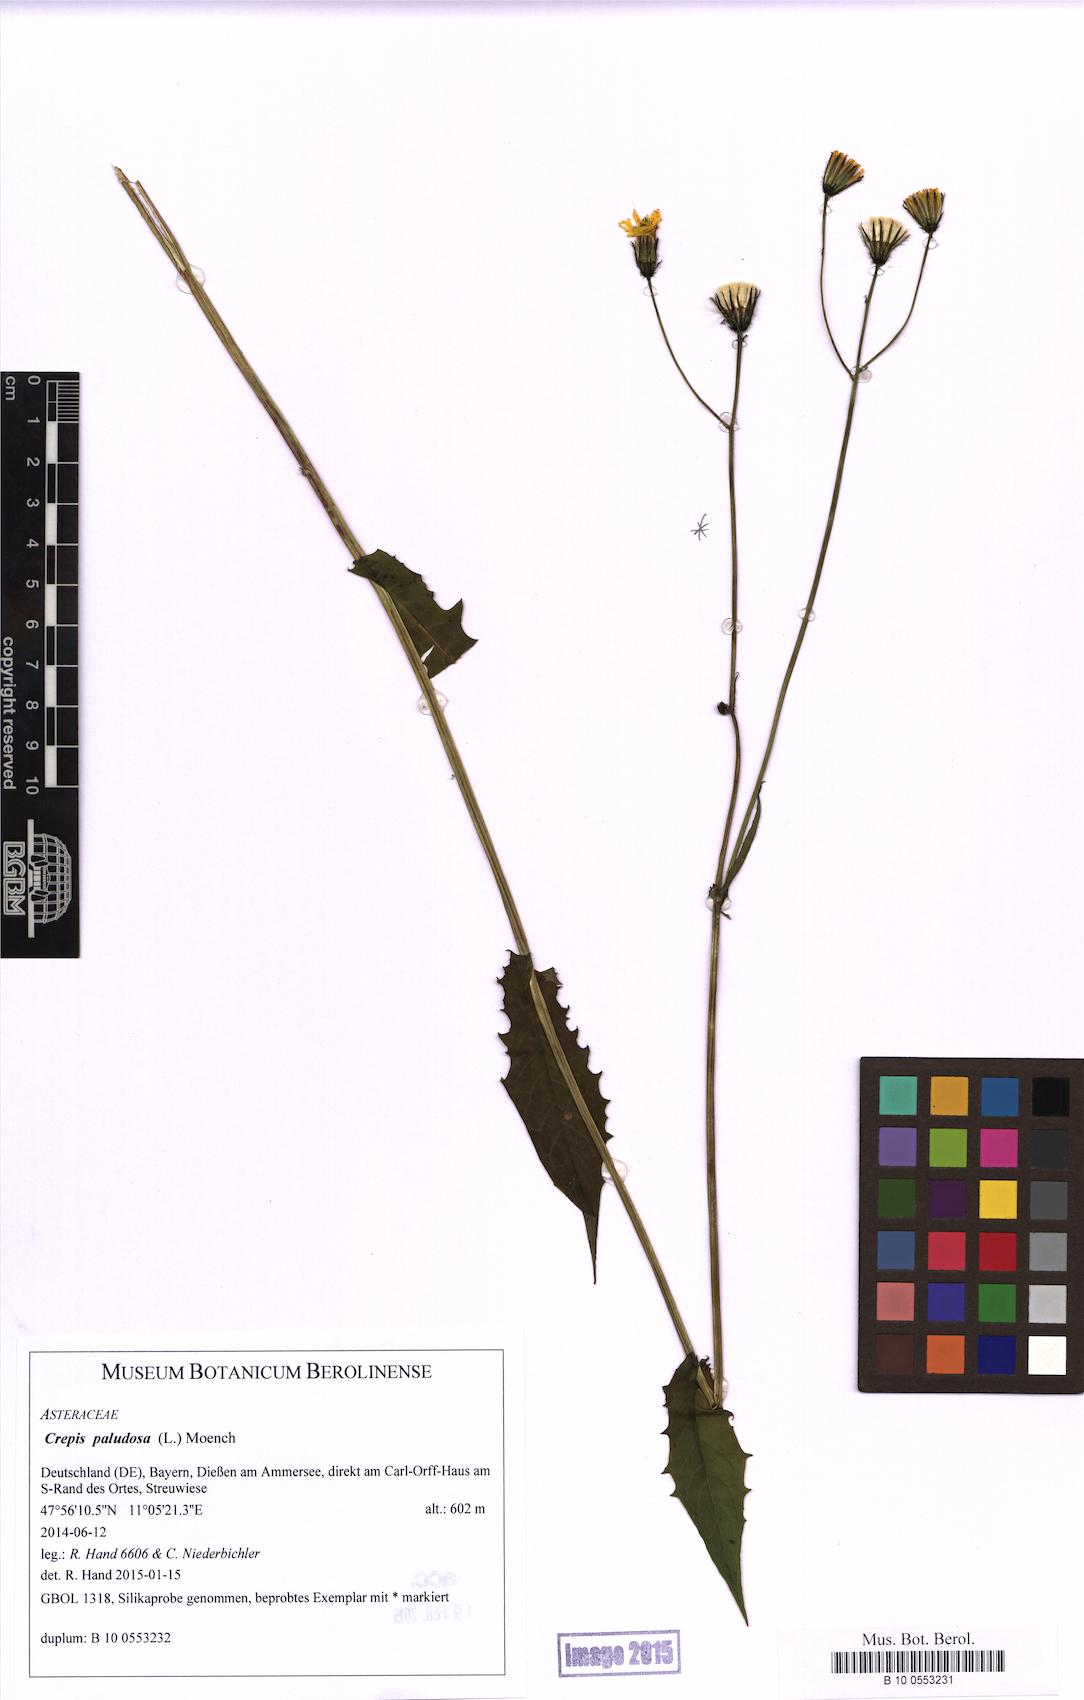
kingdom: Plantae
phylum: Tracheophyta
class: Magnoliopsida
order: Asterales
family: Asteraceae
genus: Crepis
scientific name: Crepis paludosa
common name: Marsh hawk's-beard
